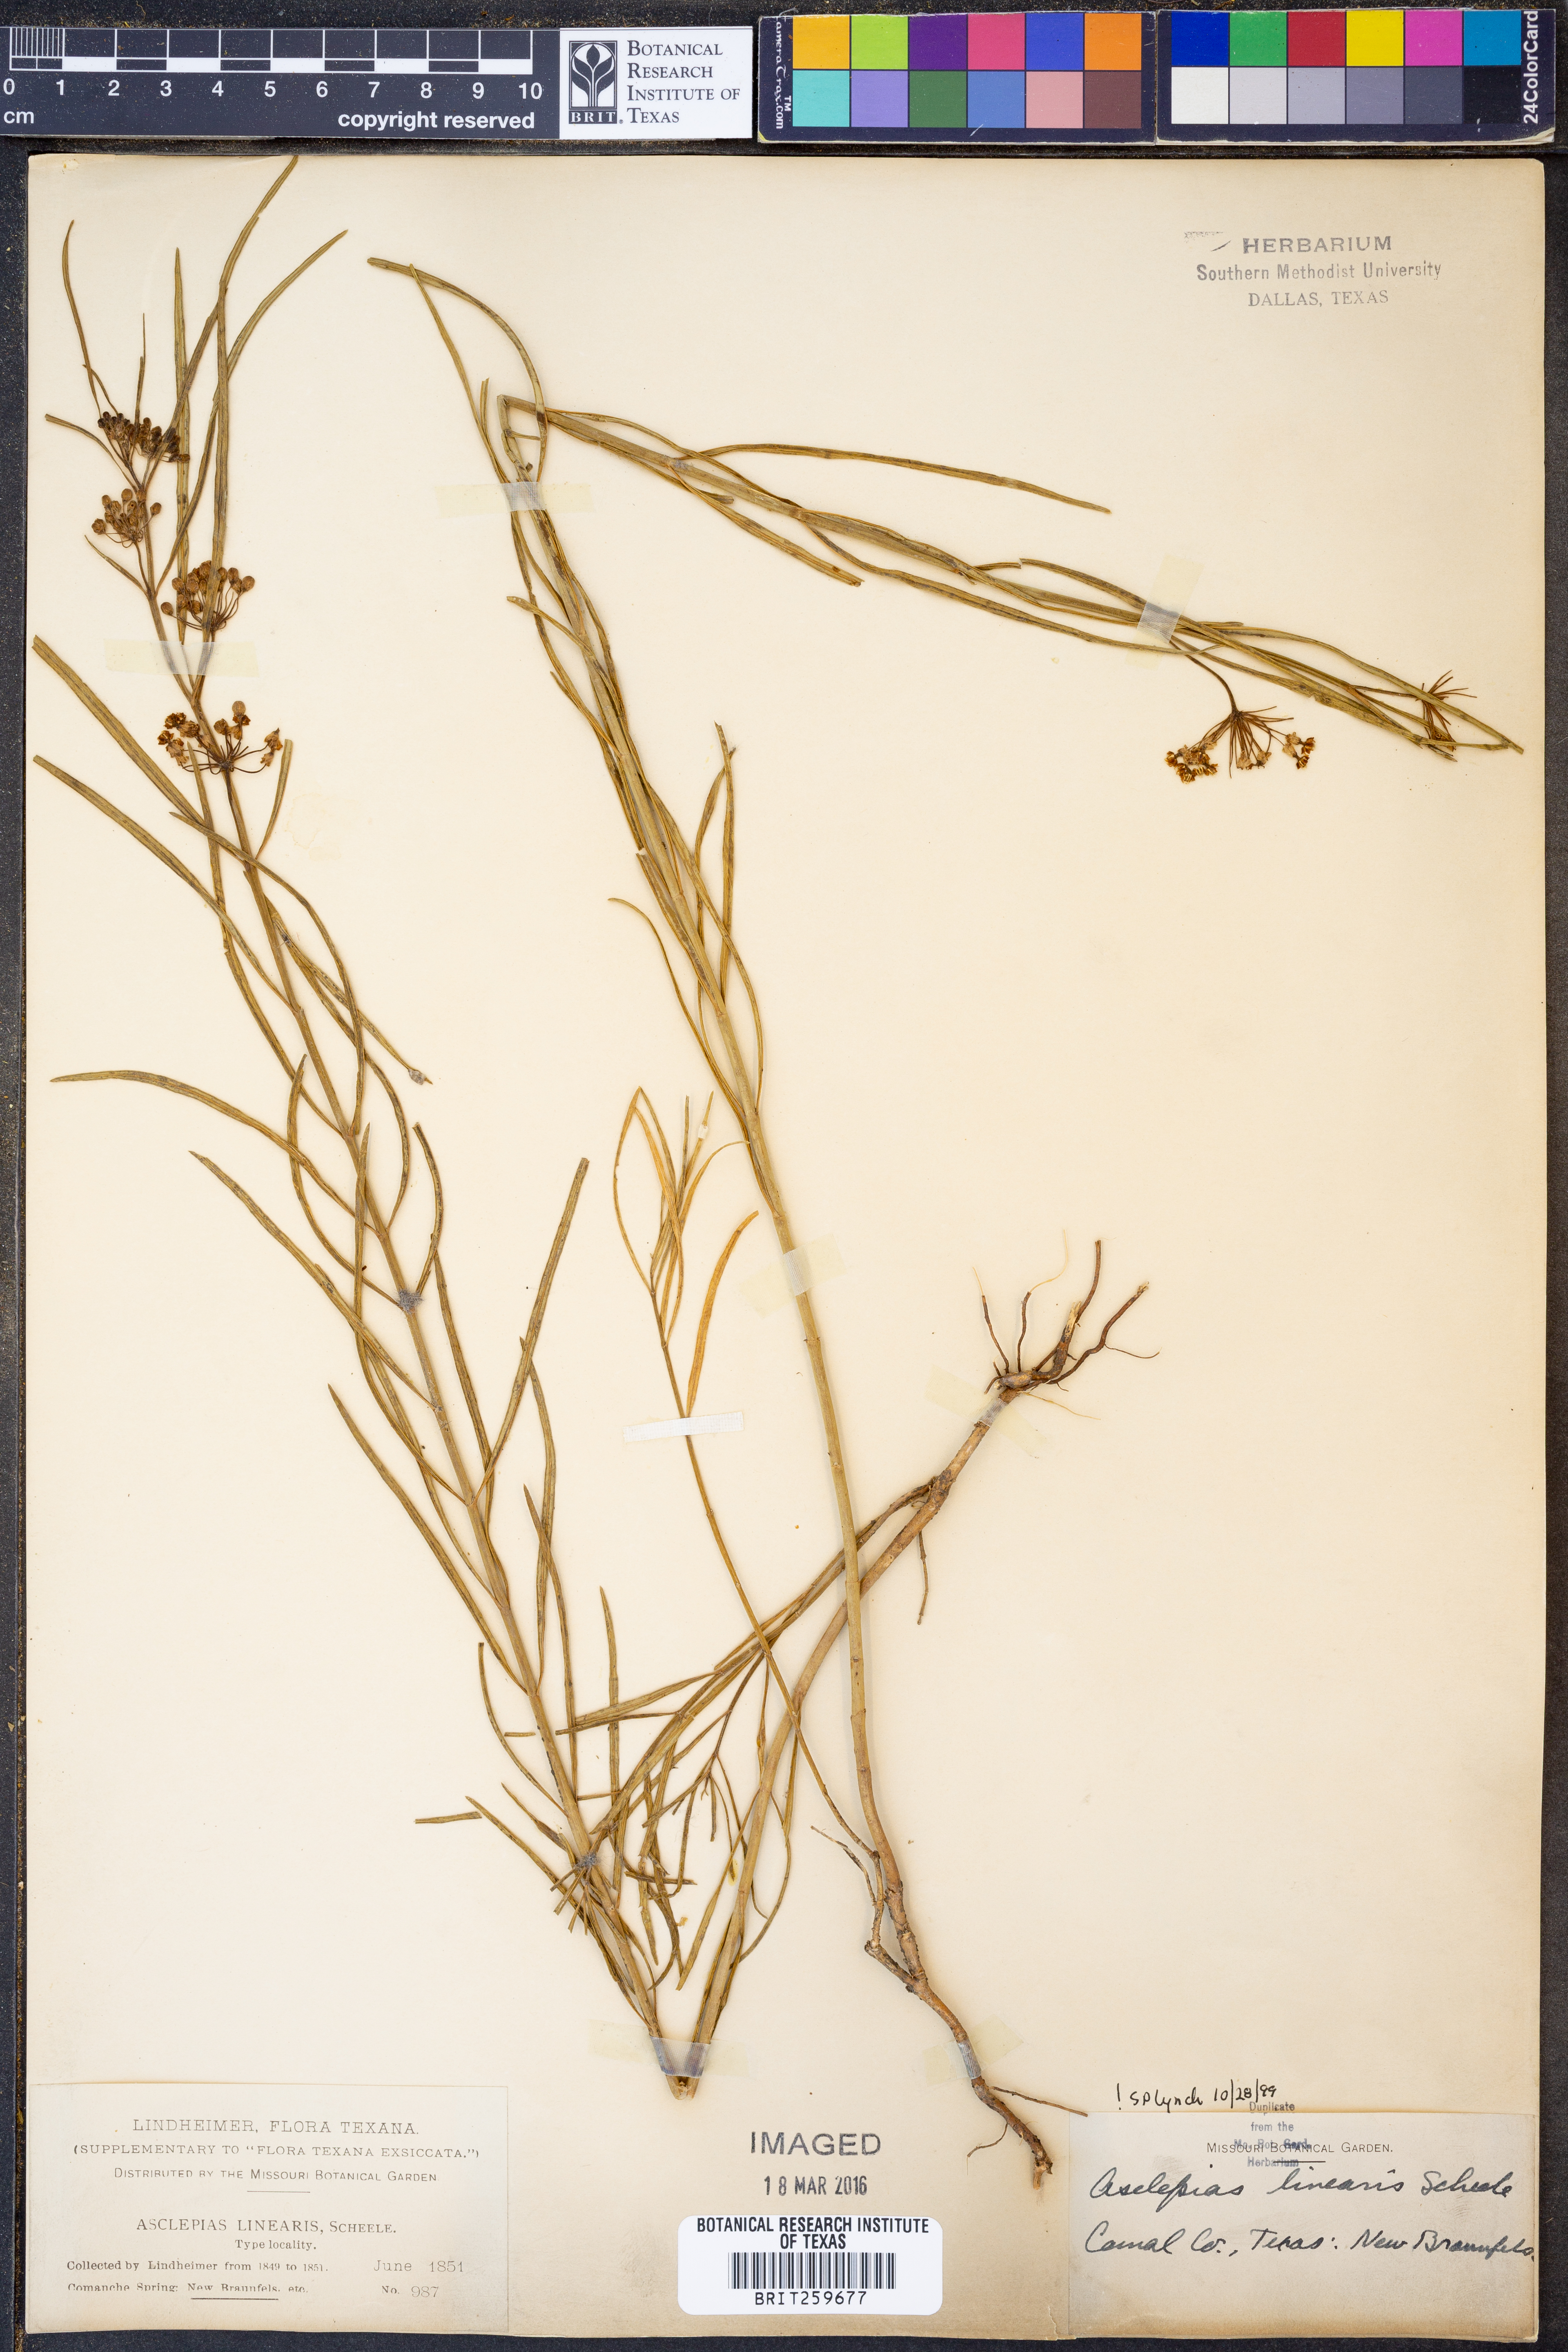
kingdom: Plantae
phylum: Tracheophyta
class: Magnoliopsida
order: Gentianales
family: Apocynaceae
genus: Asclepias
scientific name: Asclepias linearis
